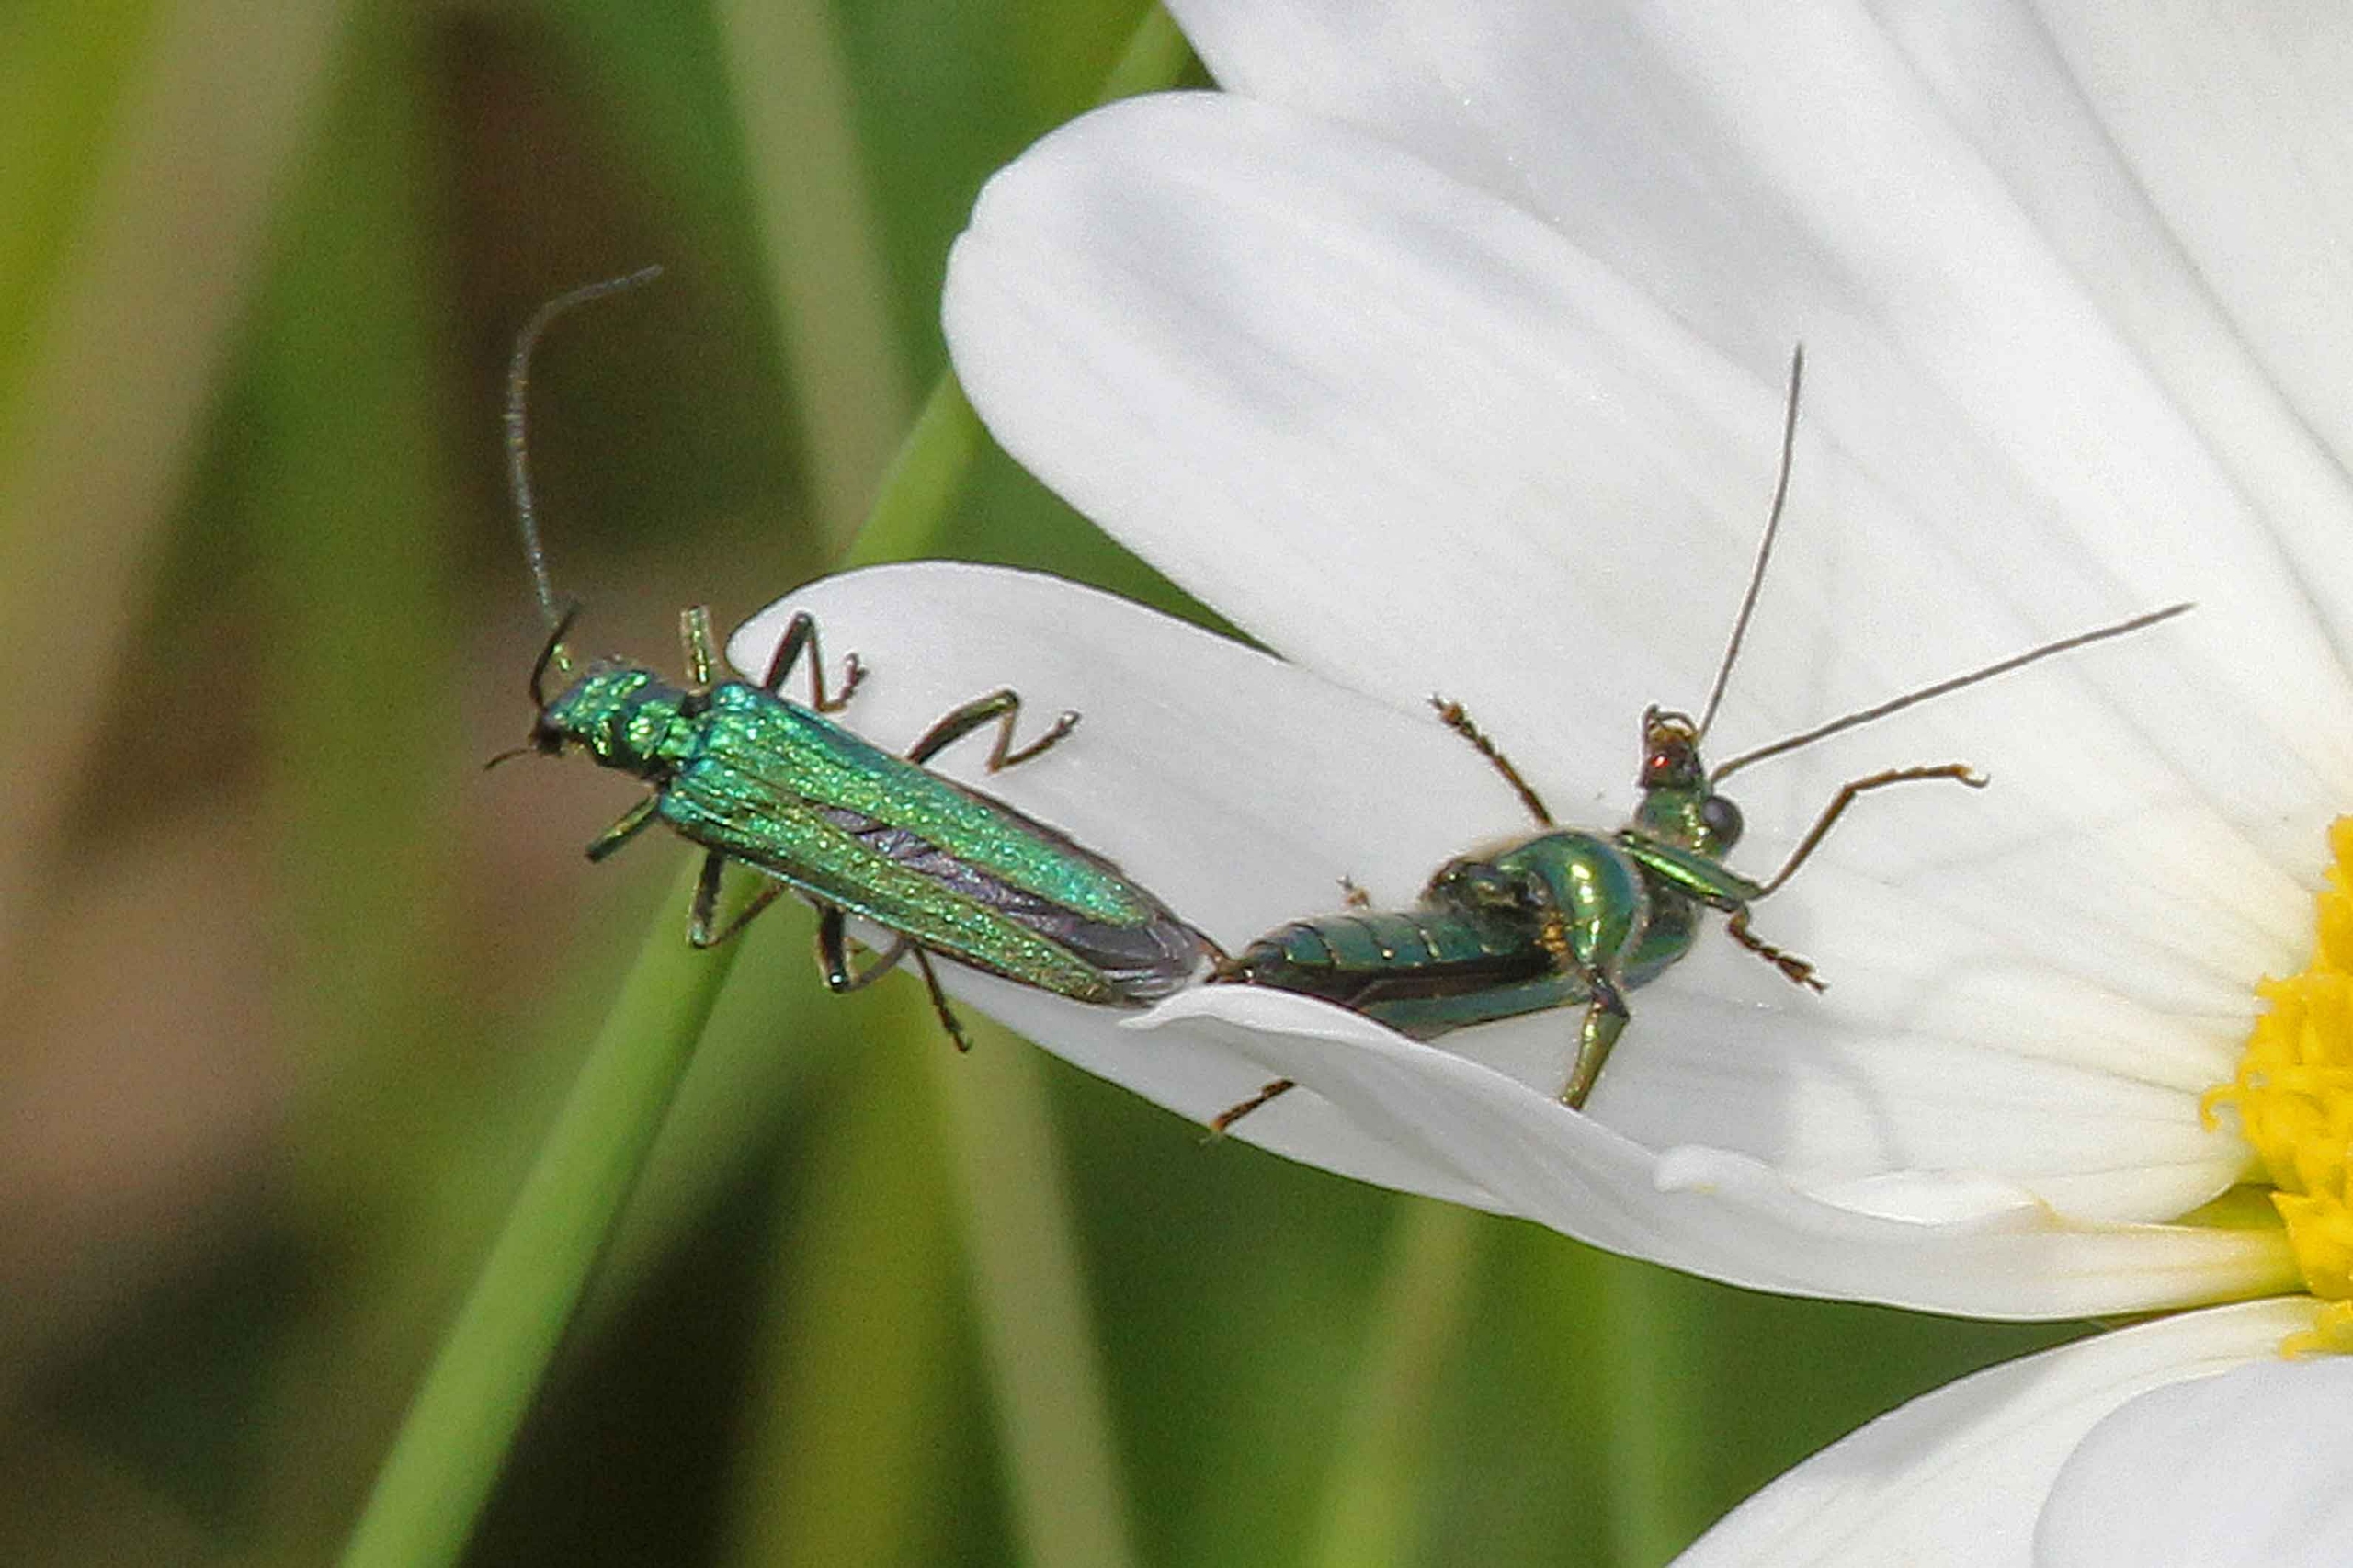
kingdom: Animalia
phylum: Arthropoda
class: Insecta
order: Coleoptera
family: Oedemeridae
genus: Oedemera
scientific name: Oedemera nobilis
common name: Tyklårssolbille
